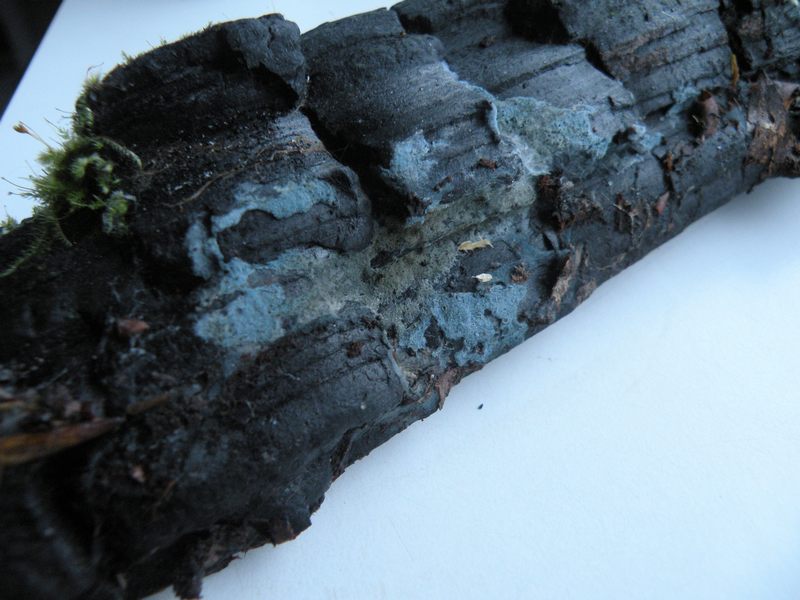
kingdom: Fungi
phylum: Basidiomycota
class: Agaricomycetes
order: Atheliales
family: Atheliaceae
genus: Byssocorticium
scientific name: Byssocorticium atrovirens
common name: blå førnehinde
